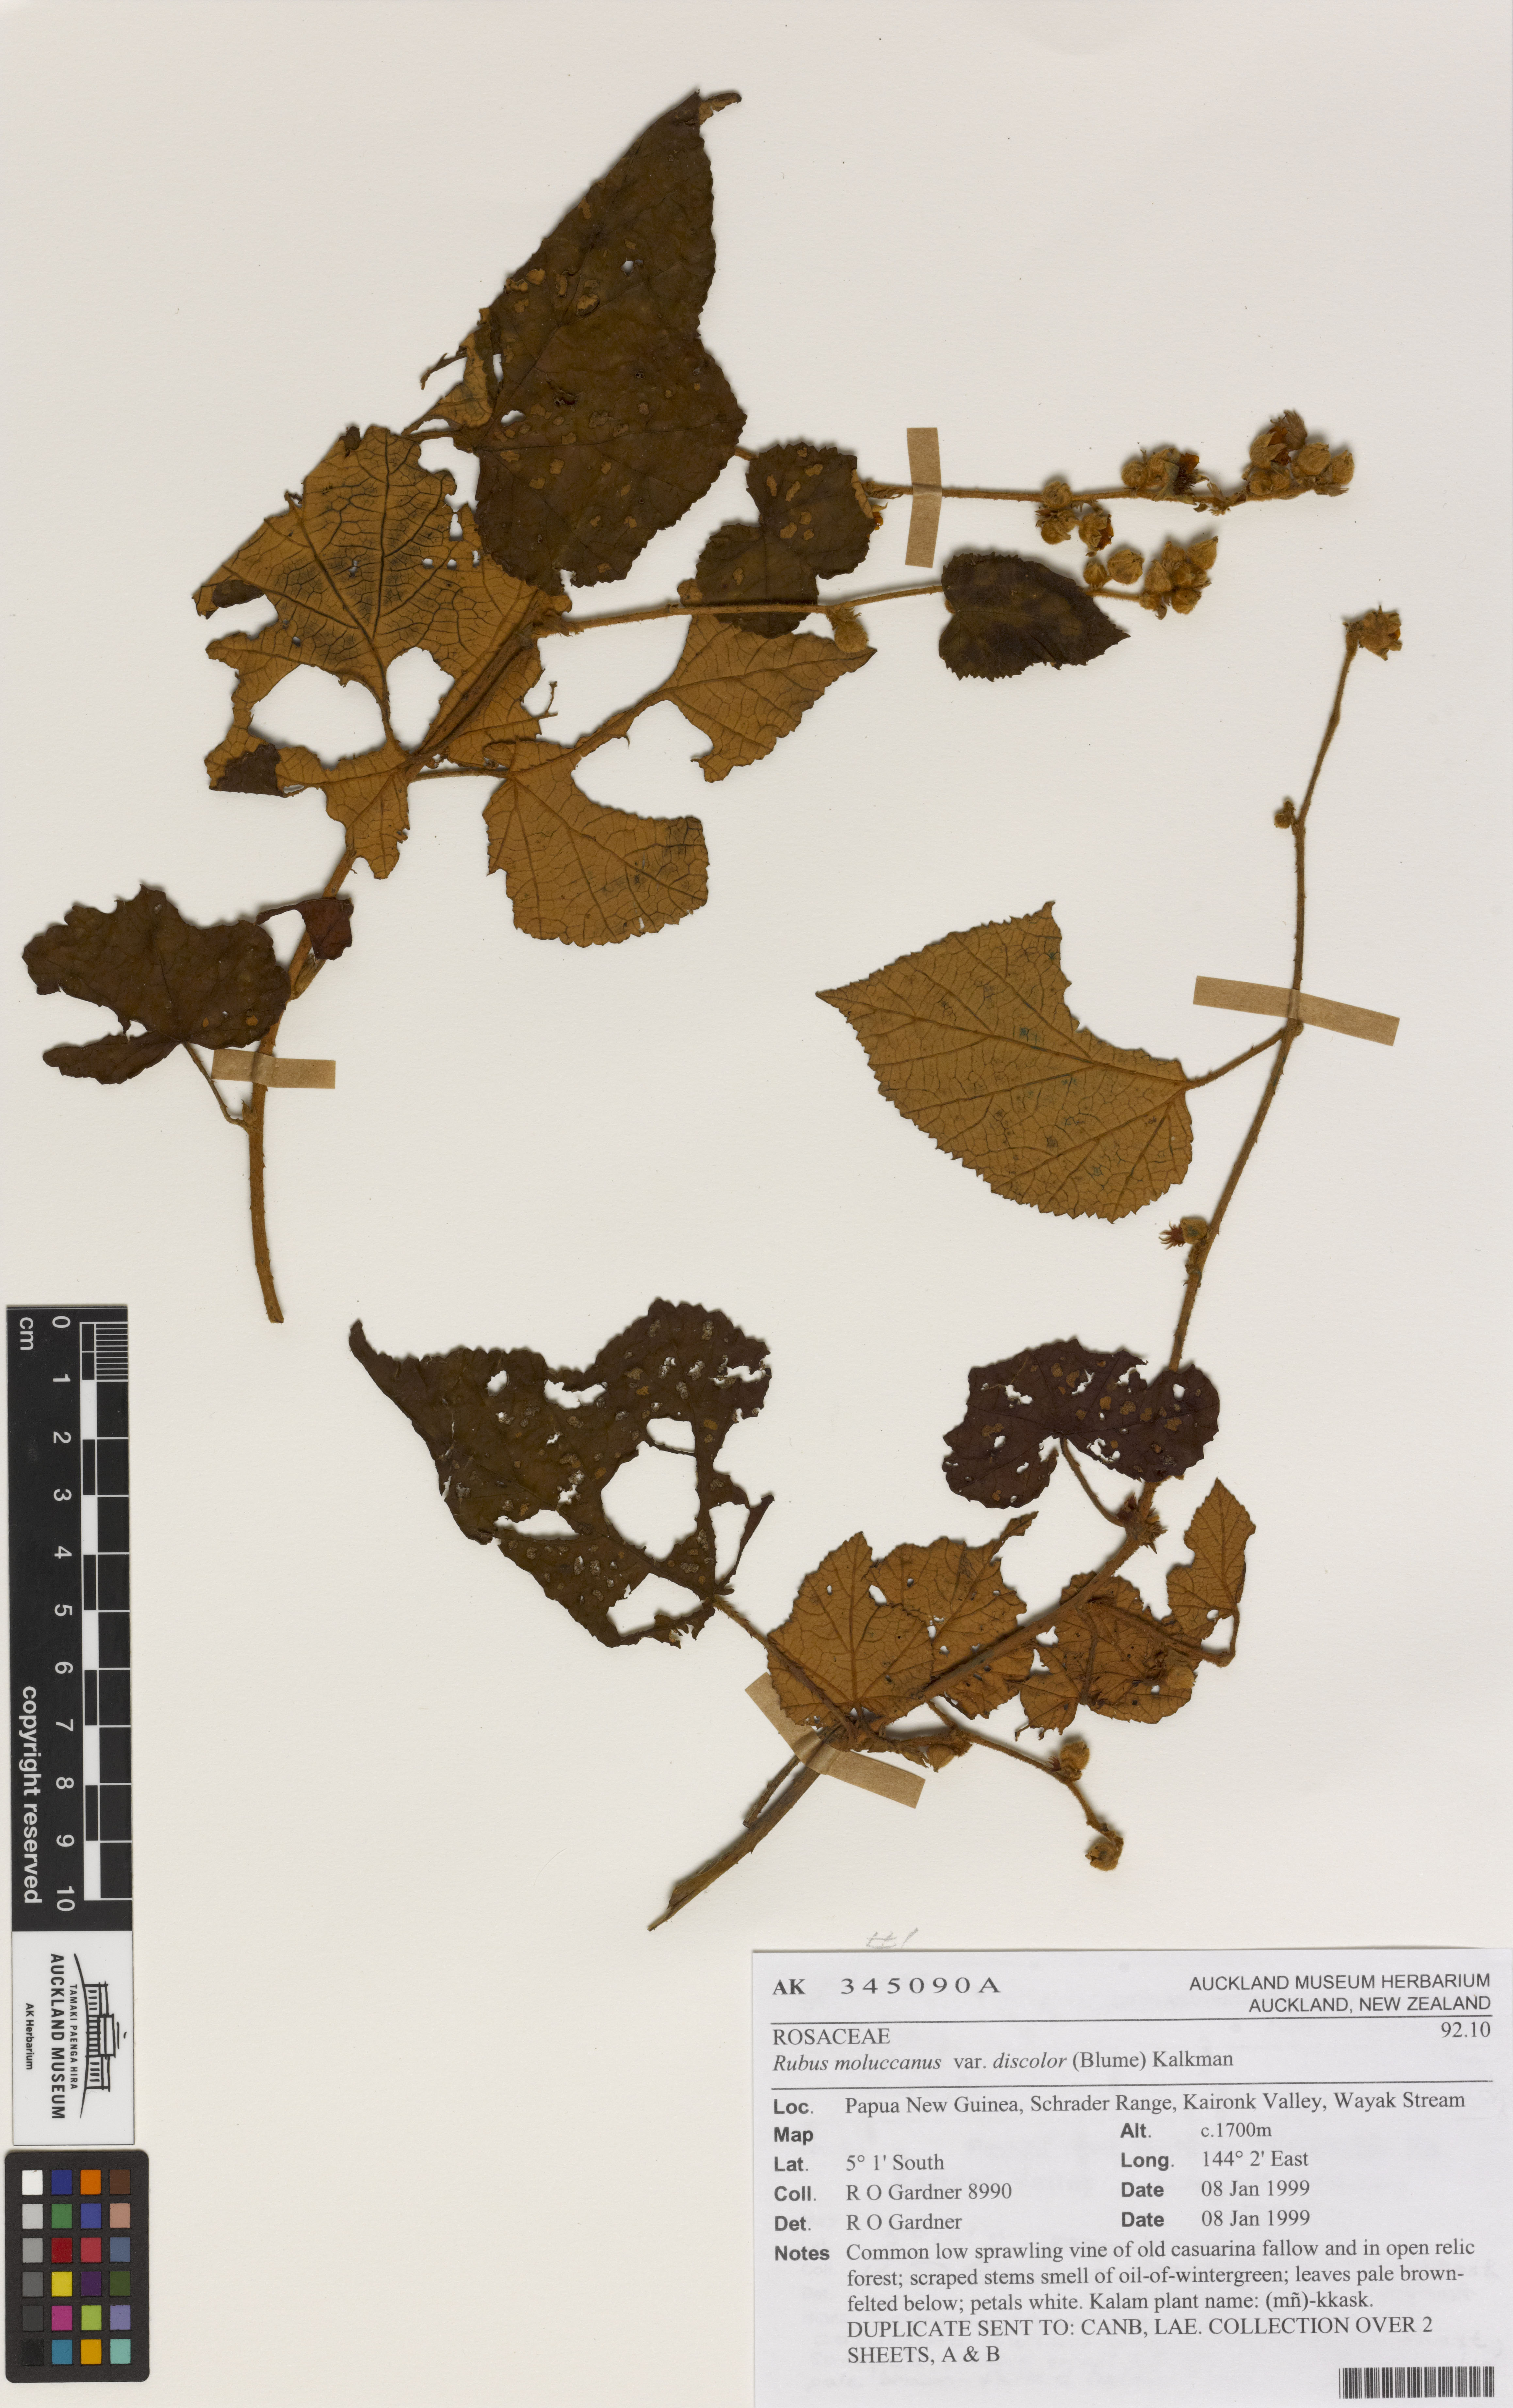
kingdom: Plantae
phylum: Tracheophyta
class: Magnoliopsida
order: Rosales
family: Rosaceae
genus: Rubus
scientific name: Rubus moluccanus
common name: Wild raspberry
